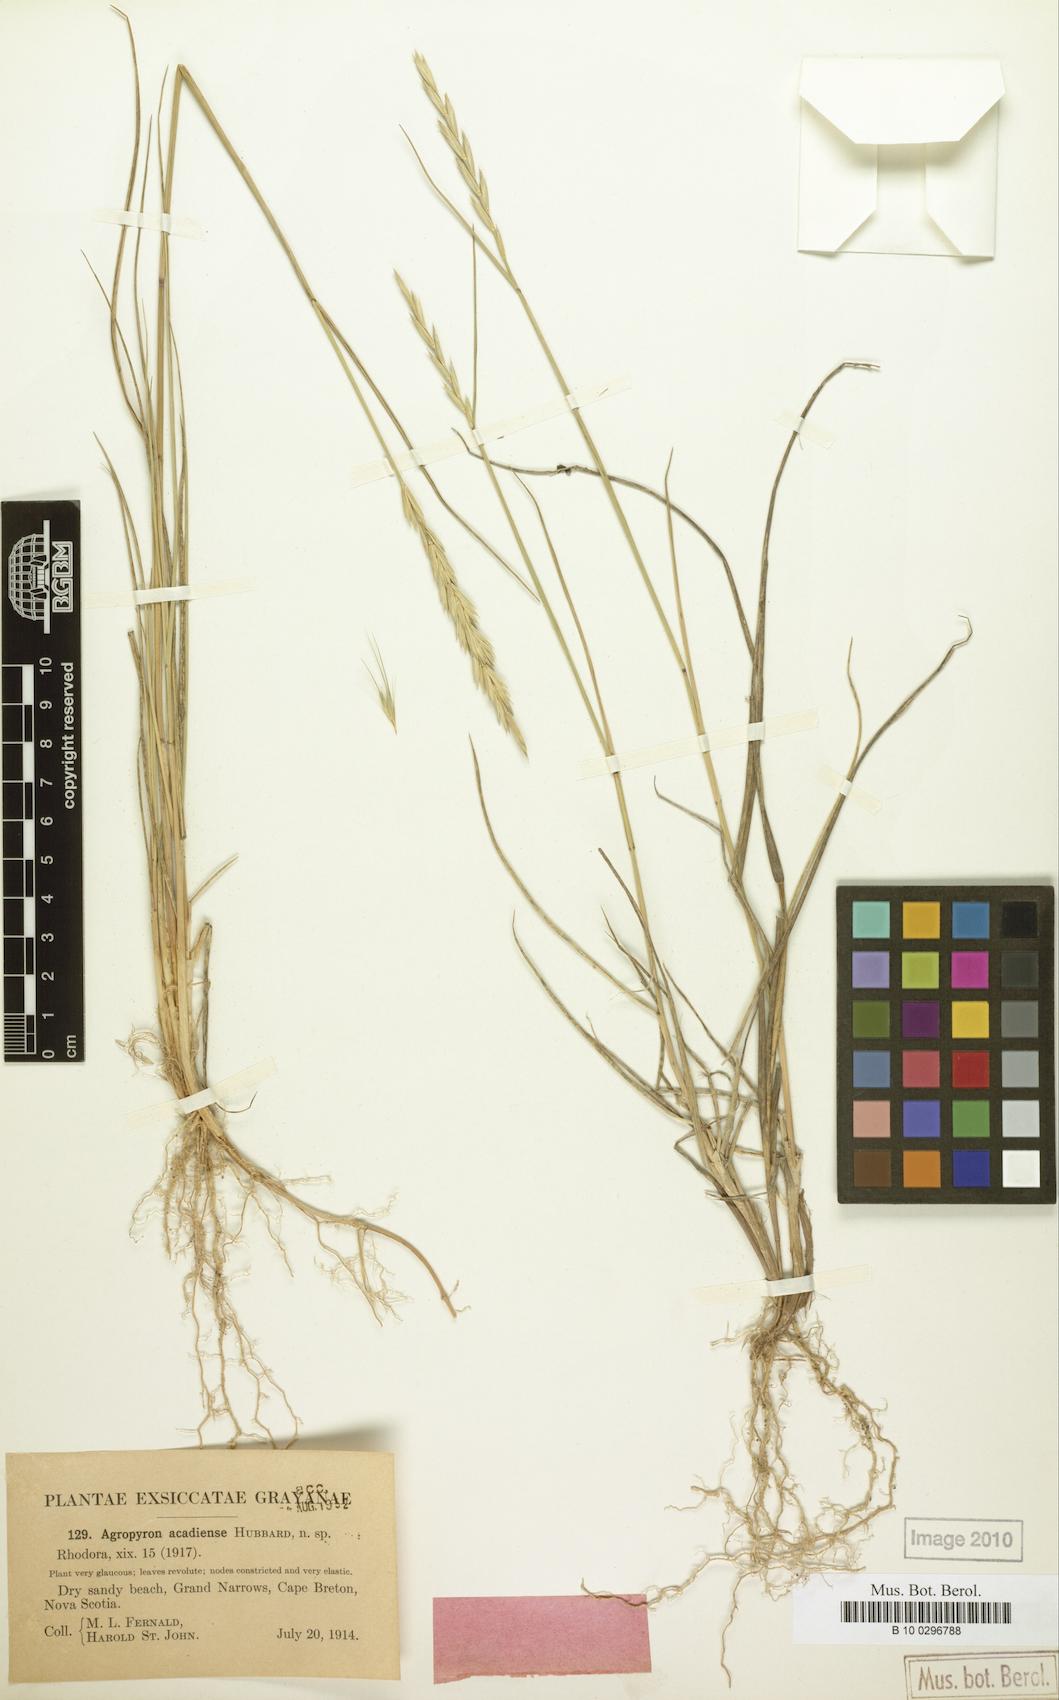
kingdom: Plantae
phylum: Tracheophyta
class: Liliopsida
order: Poales
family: Poaceae
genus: Thinopyrum
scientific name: Thinopyrum acutum
